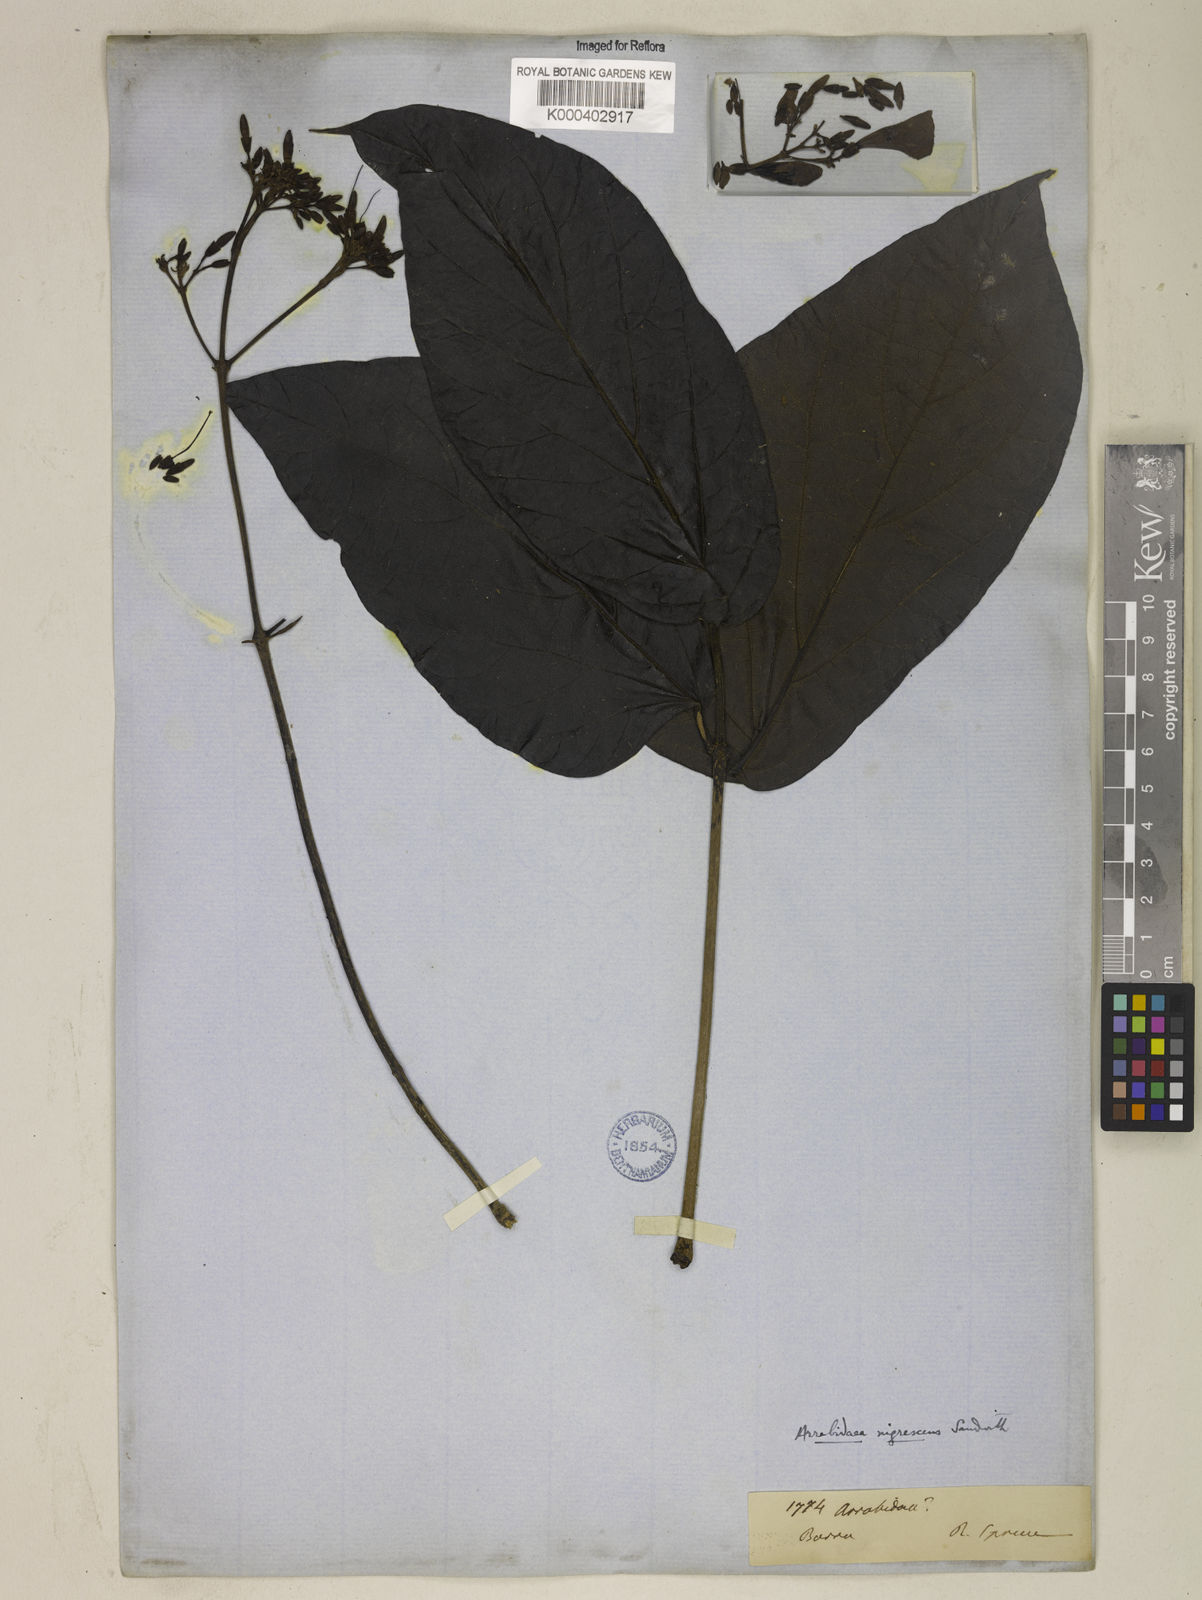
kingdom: Plantae
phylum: Tracheophyta
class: Magnoliopsida
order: Lamiales
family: Bignoniaceae
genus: Fridericia
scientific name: Fridericia nigrescens
